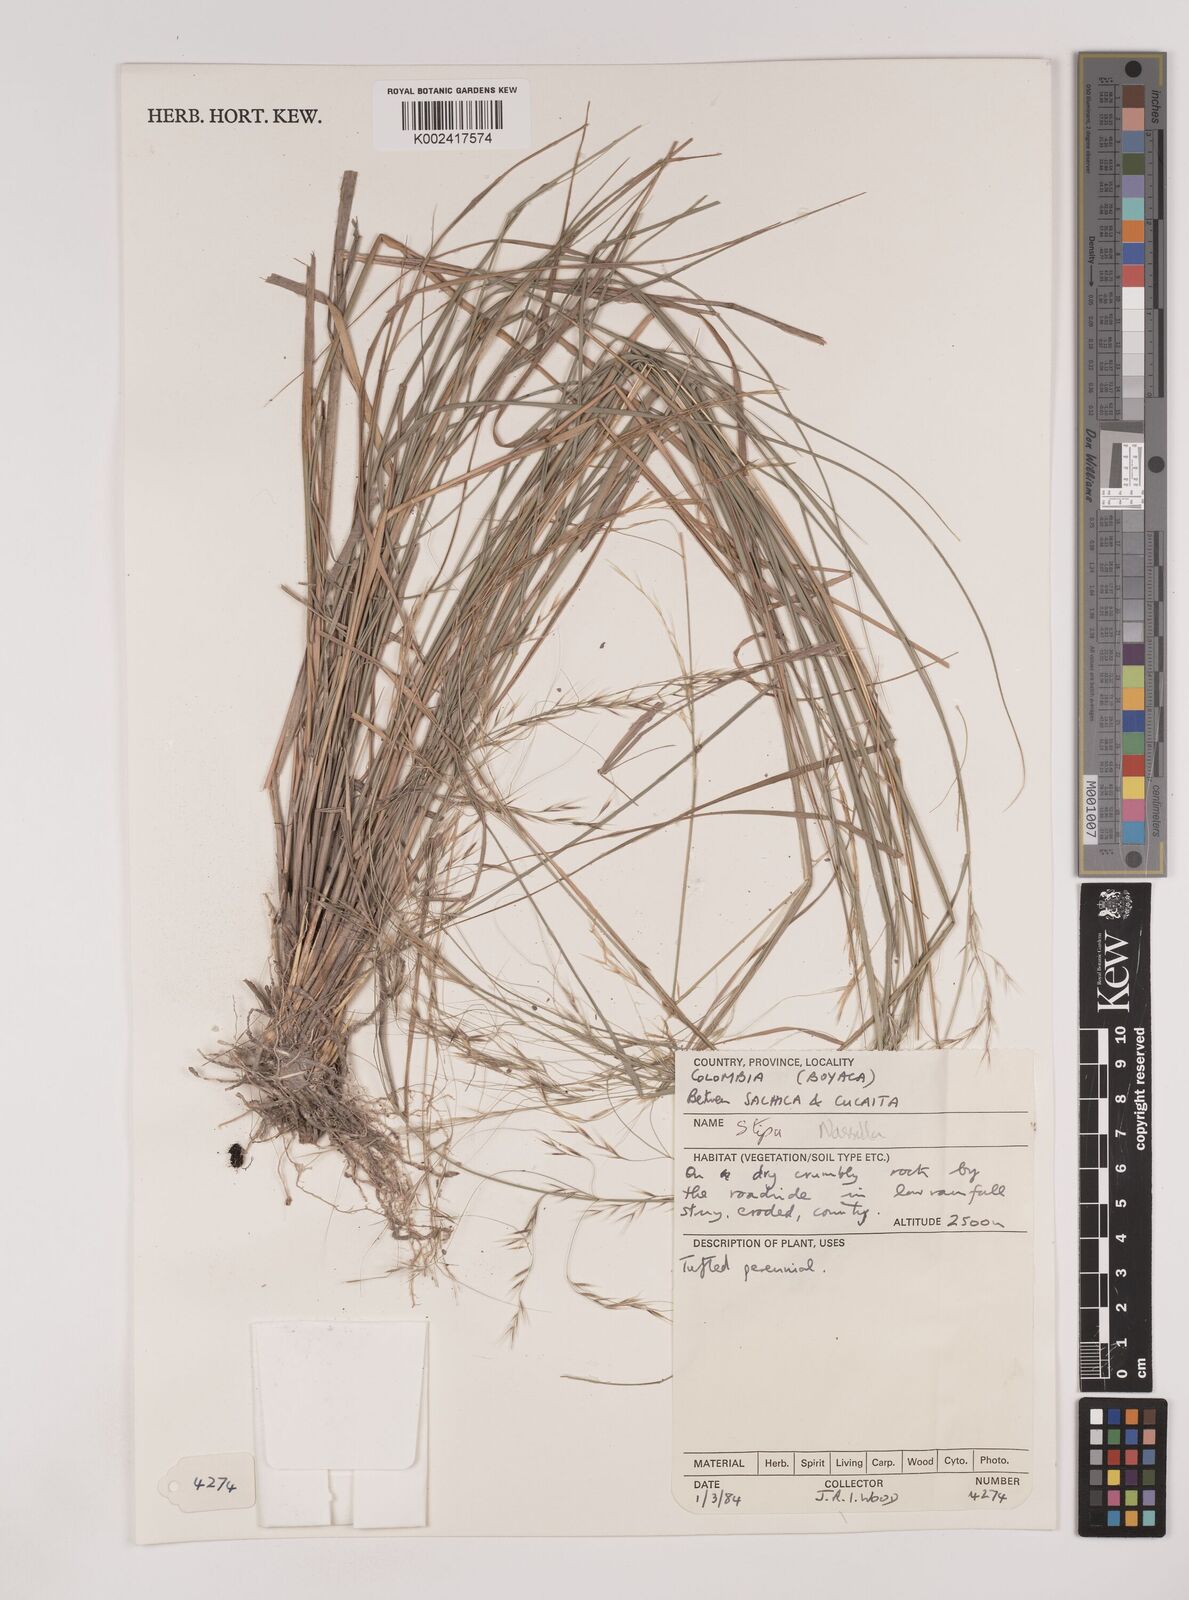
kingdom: Plantae
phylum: Tracheophyta
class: Liliopsida
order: Poales
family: Poaceae
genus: Nassella
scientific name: Nassella
